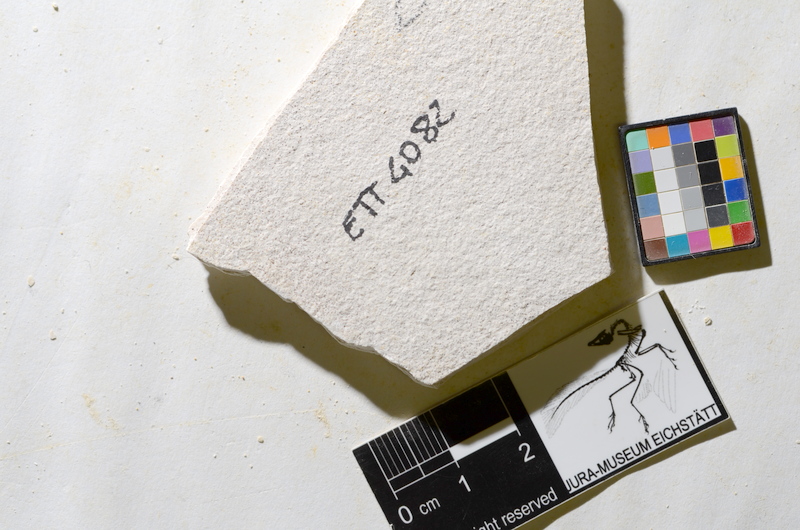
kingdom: Animalia
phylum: Chordata
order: Salmoniformes
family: Orthogonikleithridae
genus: Orthogonikleithrus
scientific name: Orthogonikleithrus hoelli
